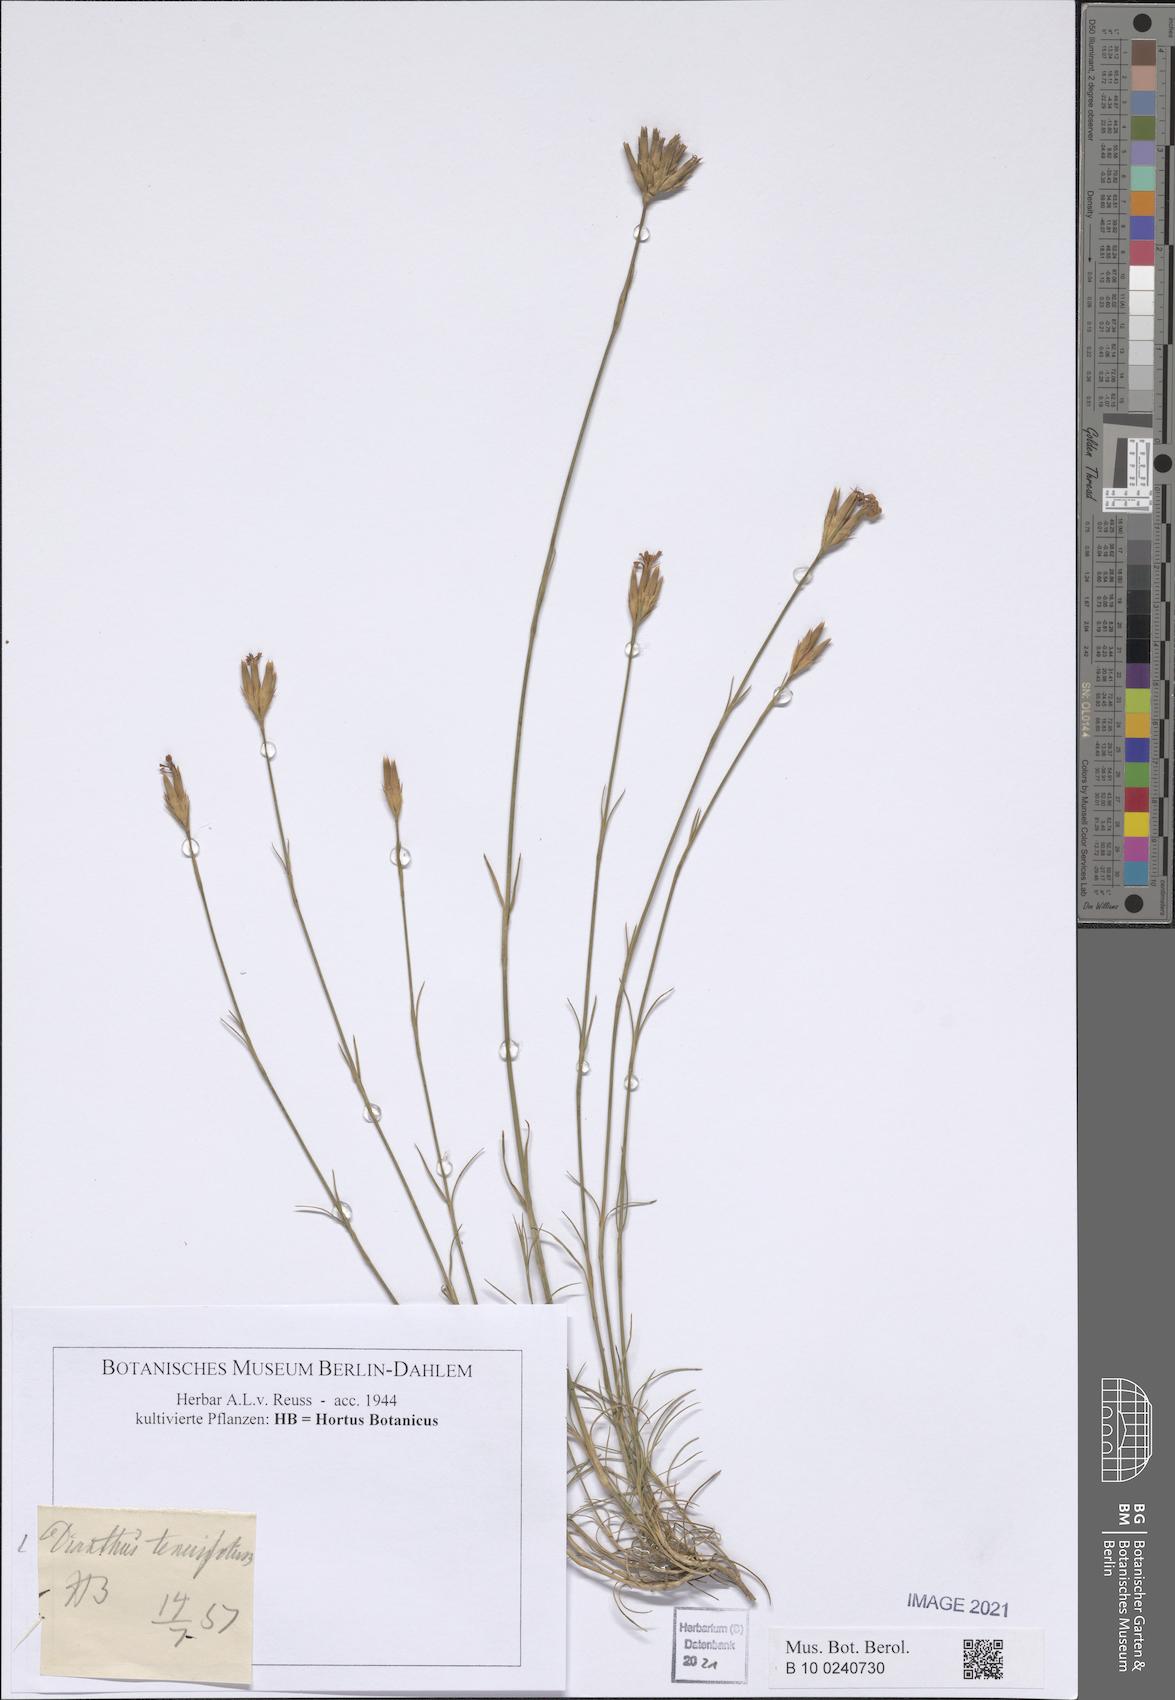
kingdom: Plantae
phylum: Tracheophyta
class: Magnoliopsida
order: Caryophyllales
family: Caryophyllaceae
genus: Dianthus
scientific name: Dianthus carthusianorum
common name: Carthusian pink
